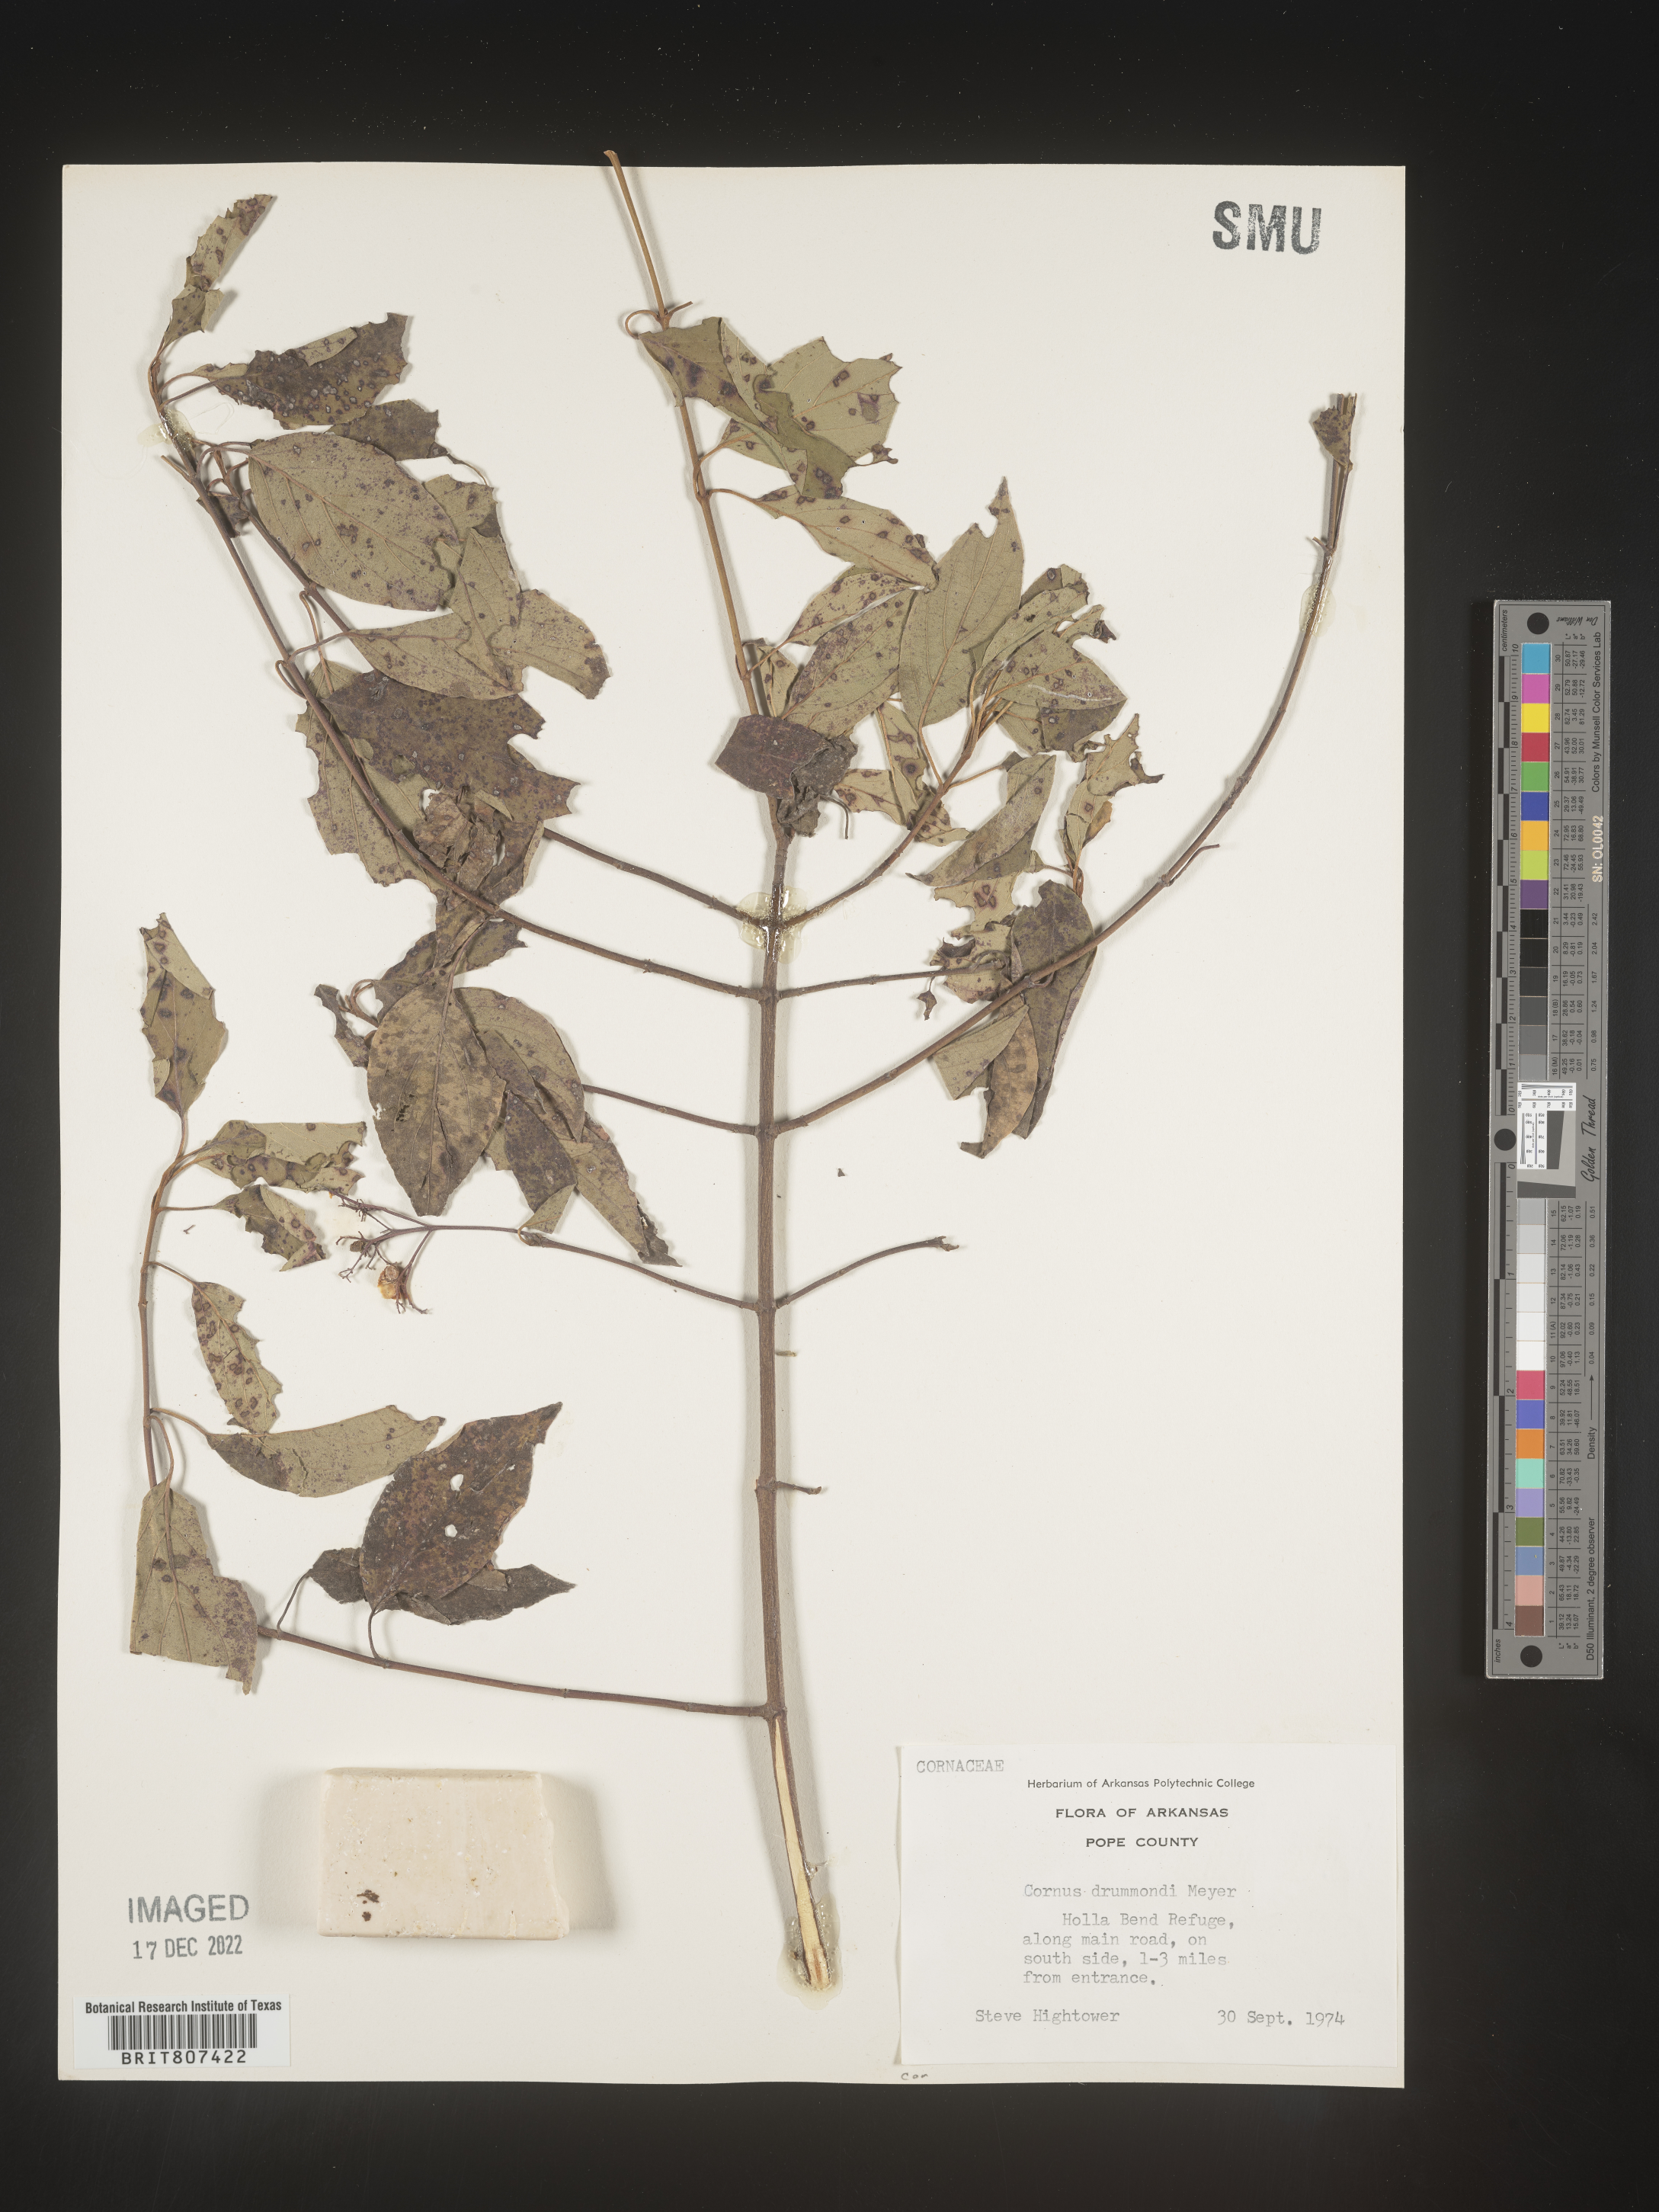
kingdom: Plantae
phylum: Tracheophyta
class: Magnoliopsida
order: Cornales
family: Cornaceae
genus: Cornus
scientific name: Cornus drummondii
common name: Rough-leaf dogwood
